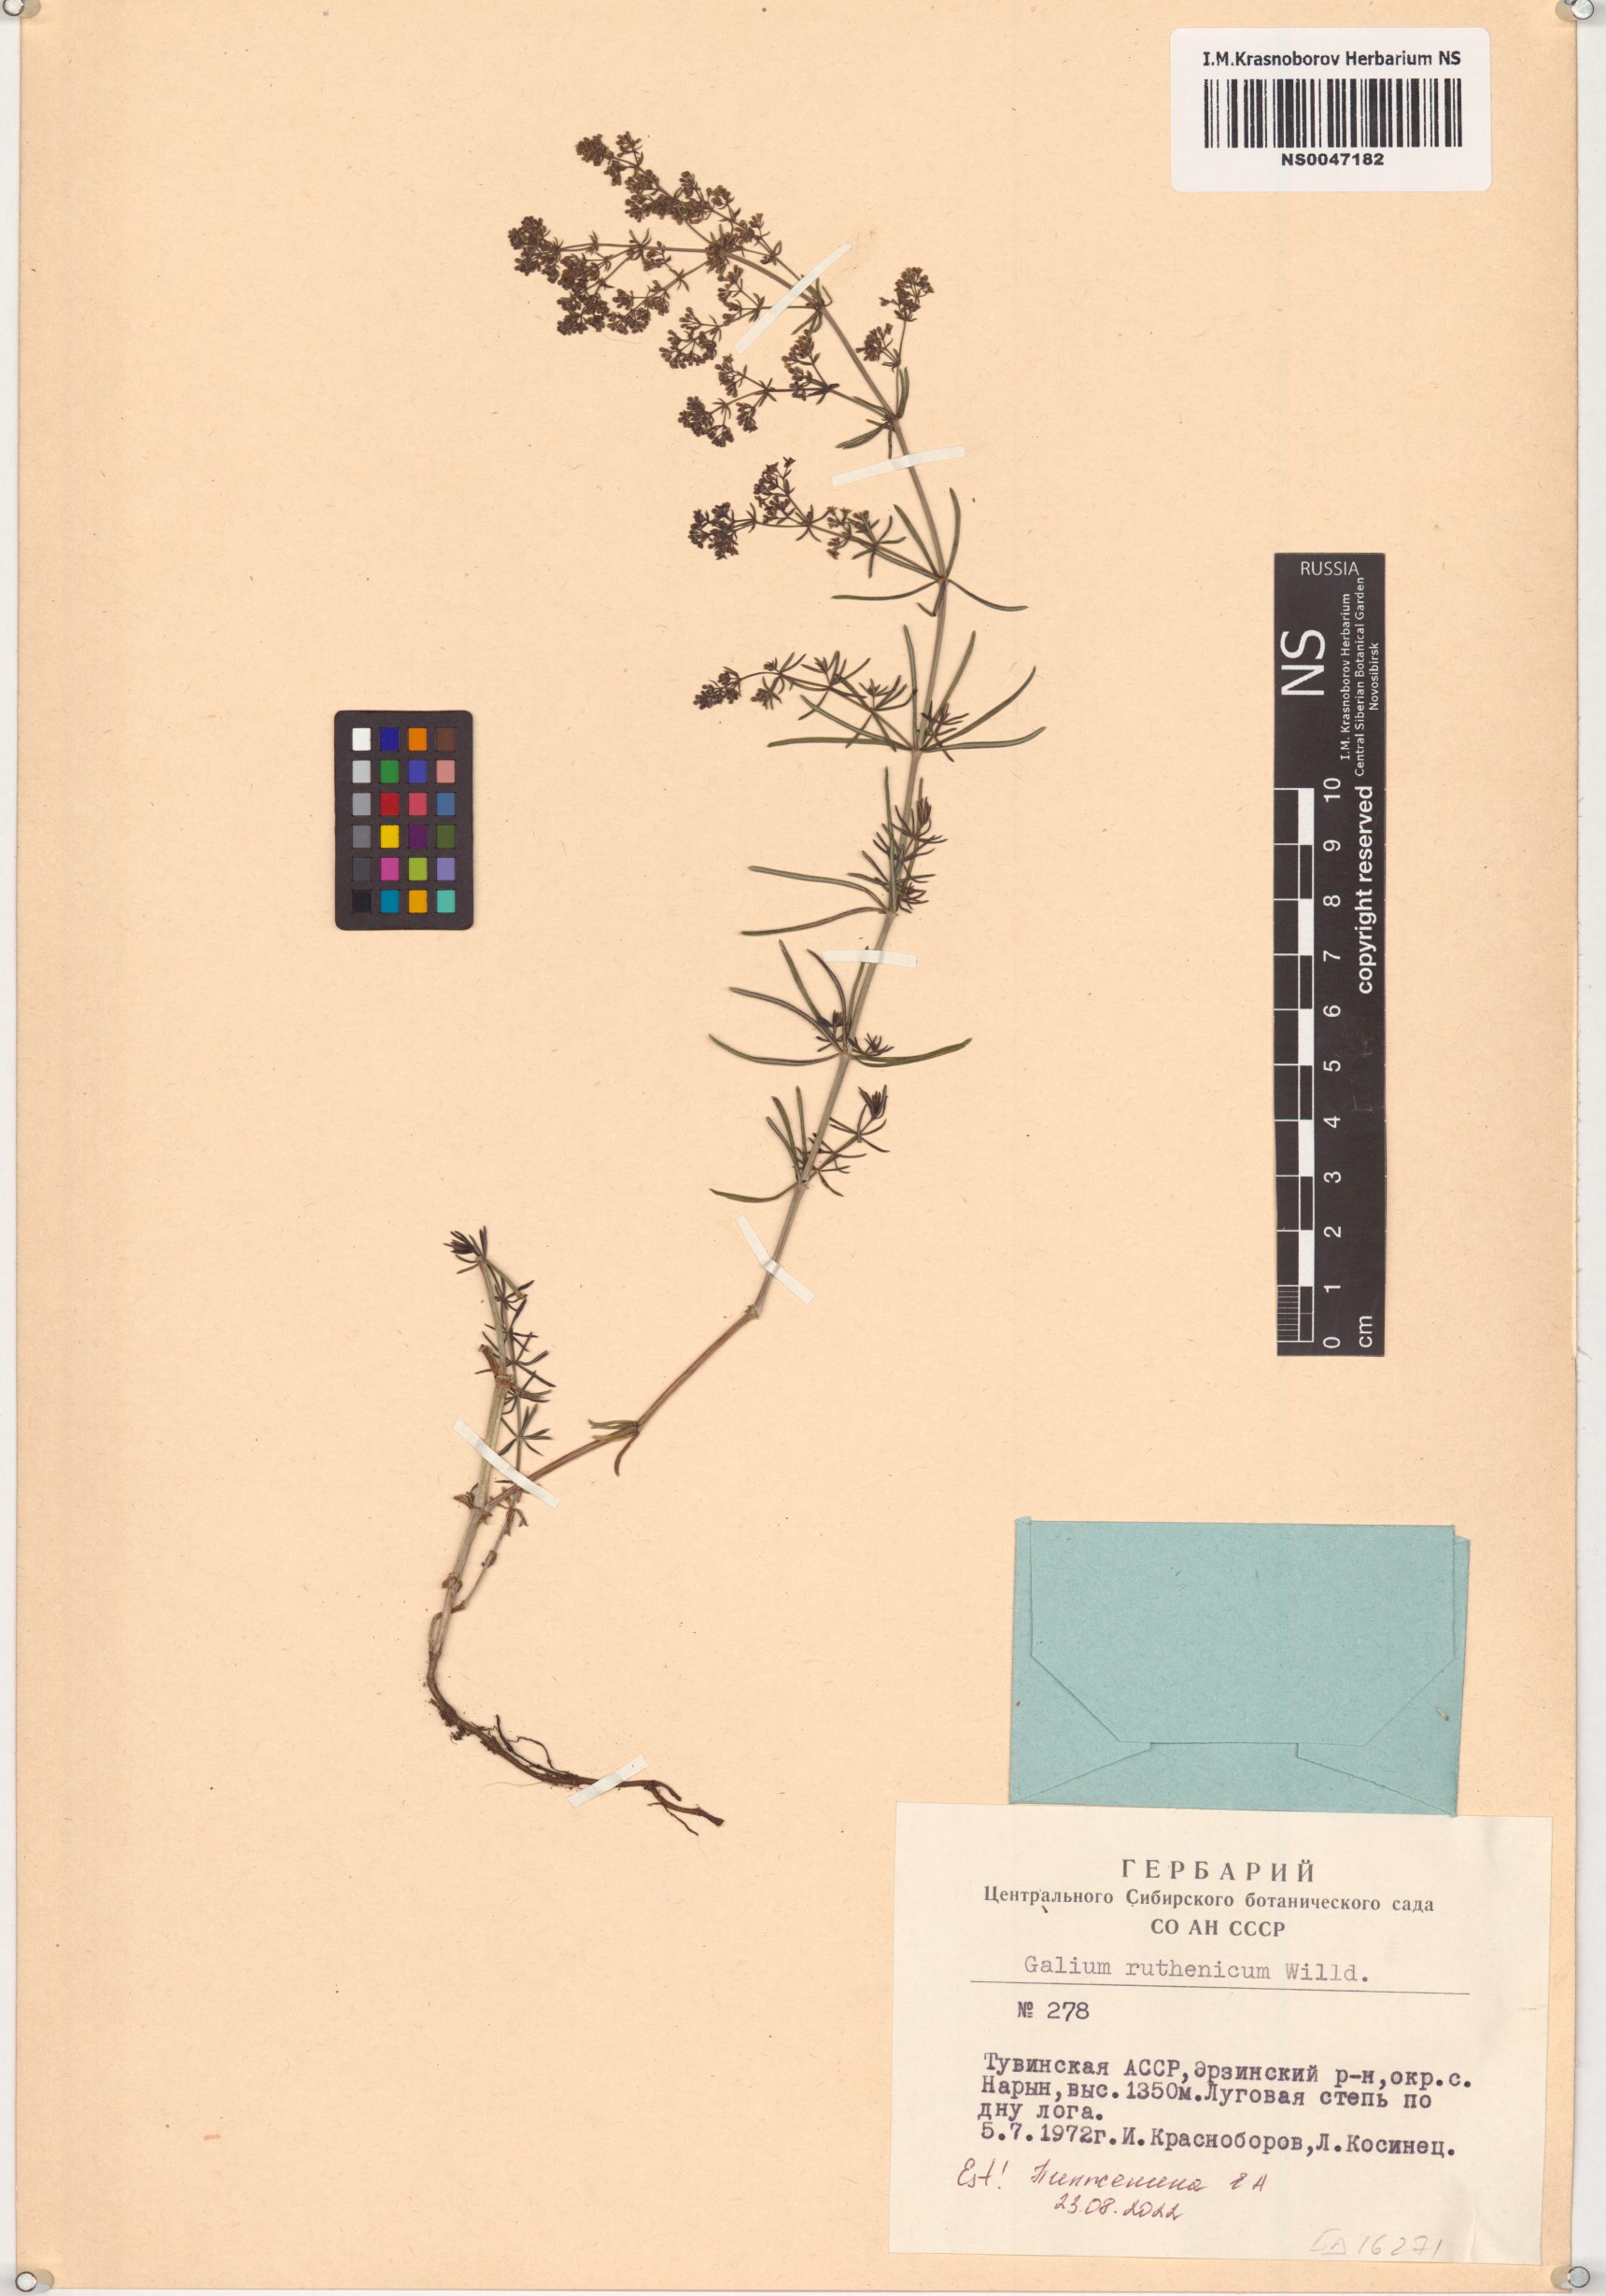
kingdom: Plantae
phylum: Tracheophyta
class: Magnoliopsida
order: Gentianales
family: Rubiaceae
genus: Galium
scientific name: Galium verum
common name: Lady's bedstraw
